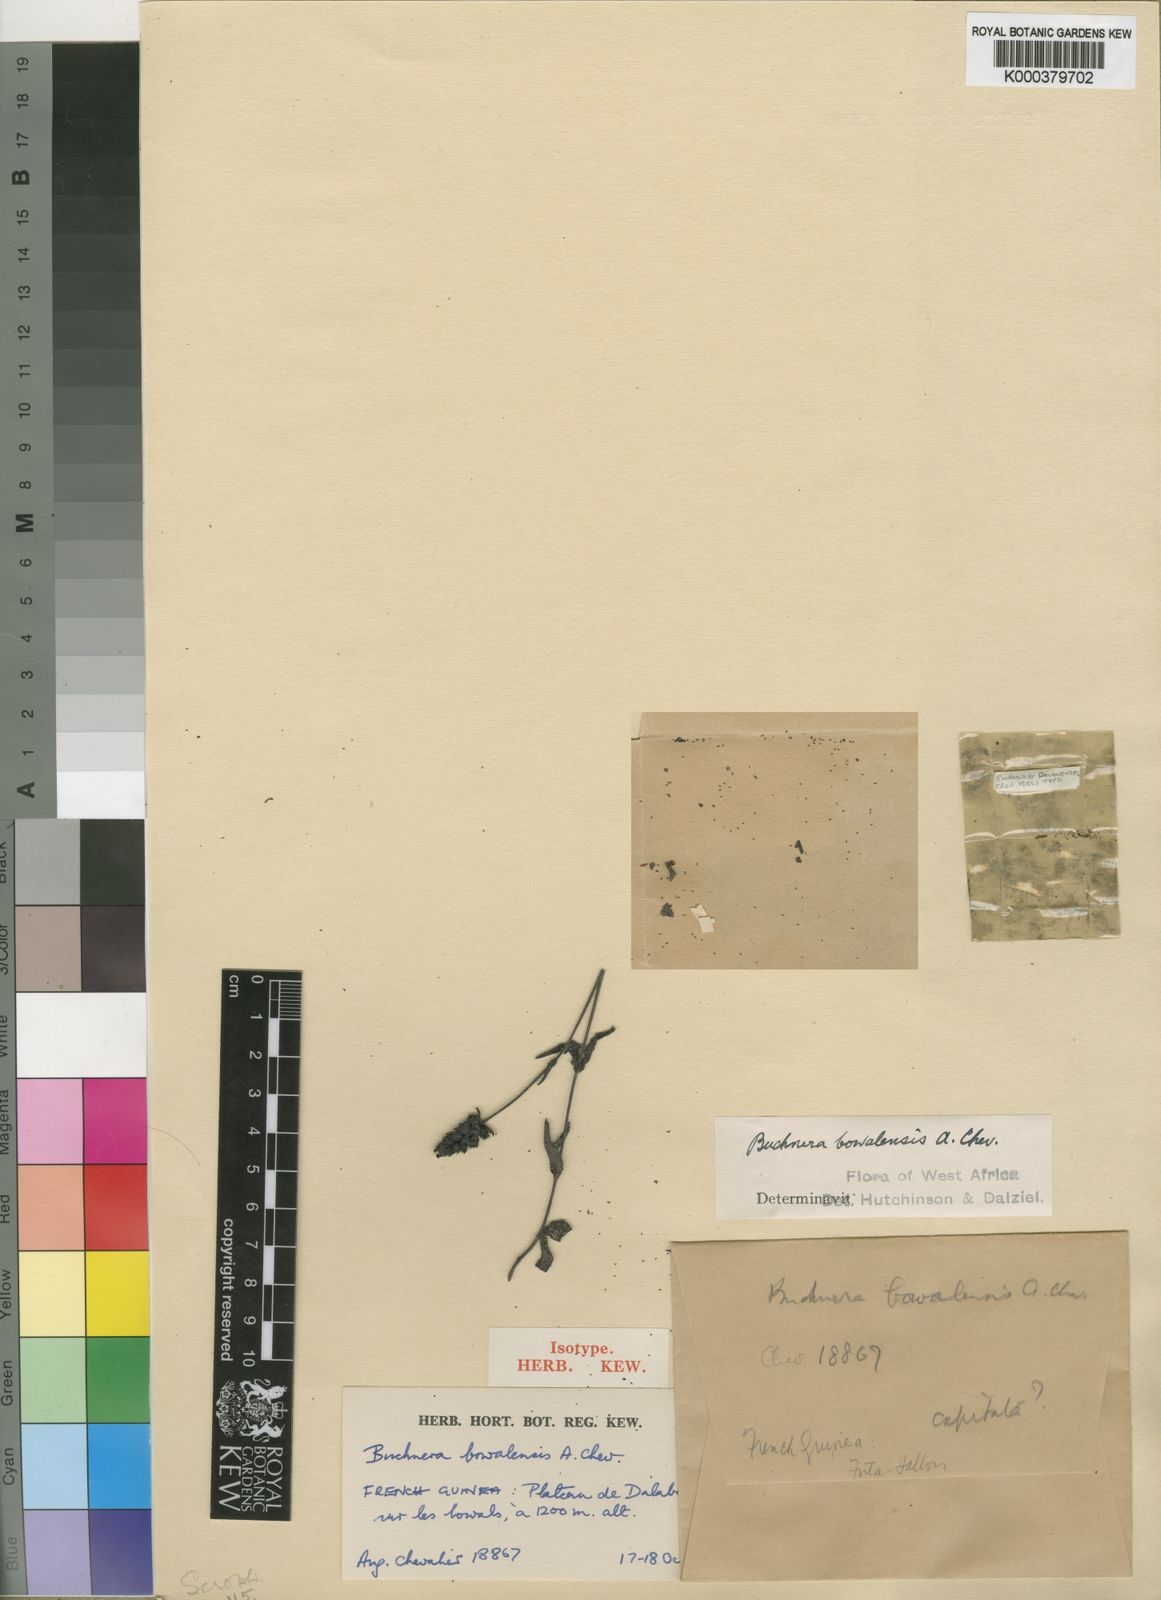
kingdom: Plantae
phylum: Tracheophyta
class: Magnoliopsida
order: Lamiales
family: Orobanchaceae
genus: Buchnera
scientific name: Buchnera bowalensis
